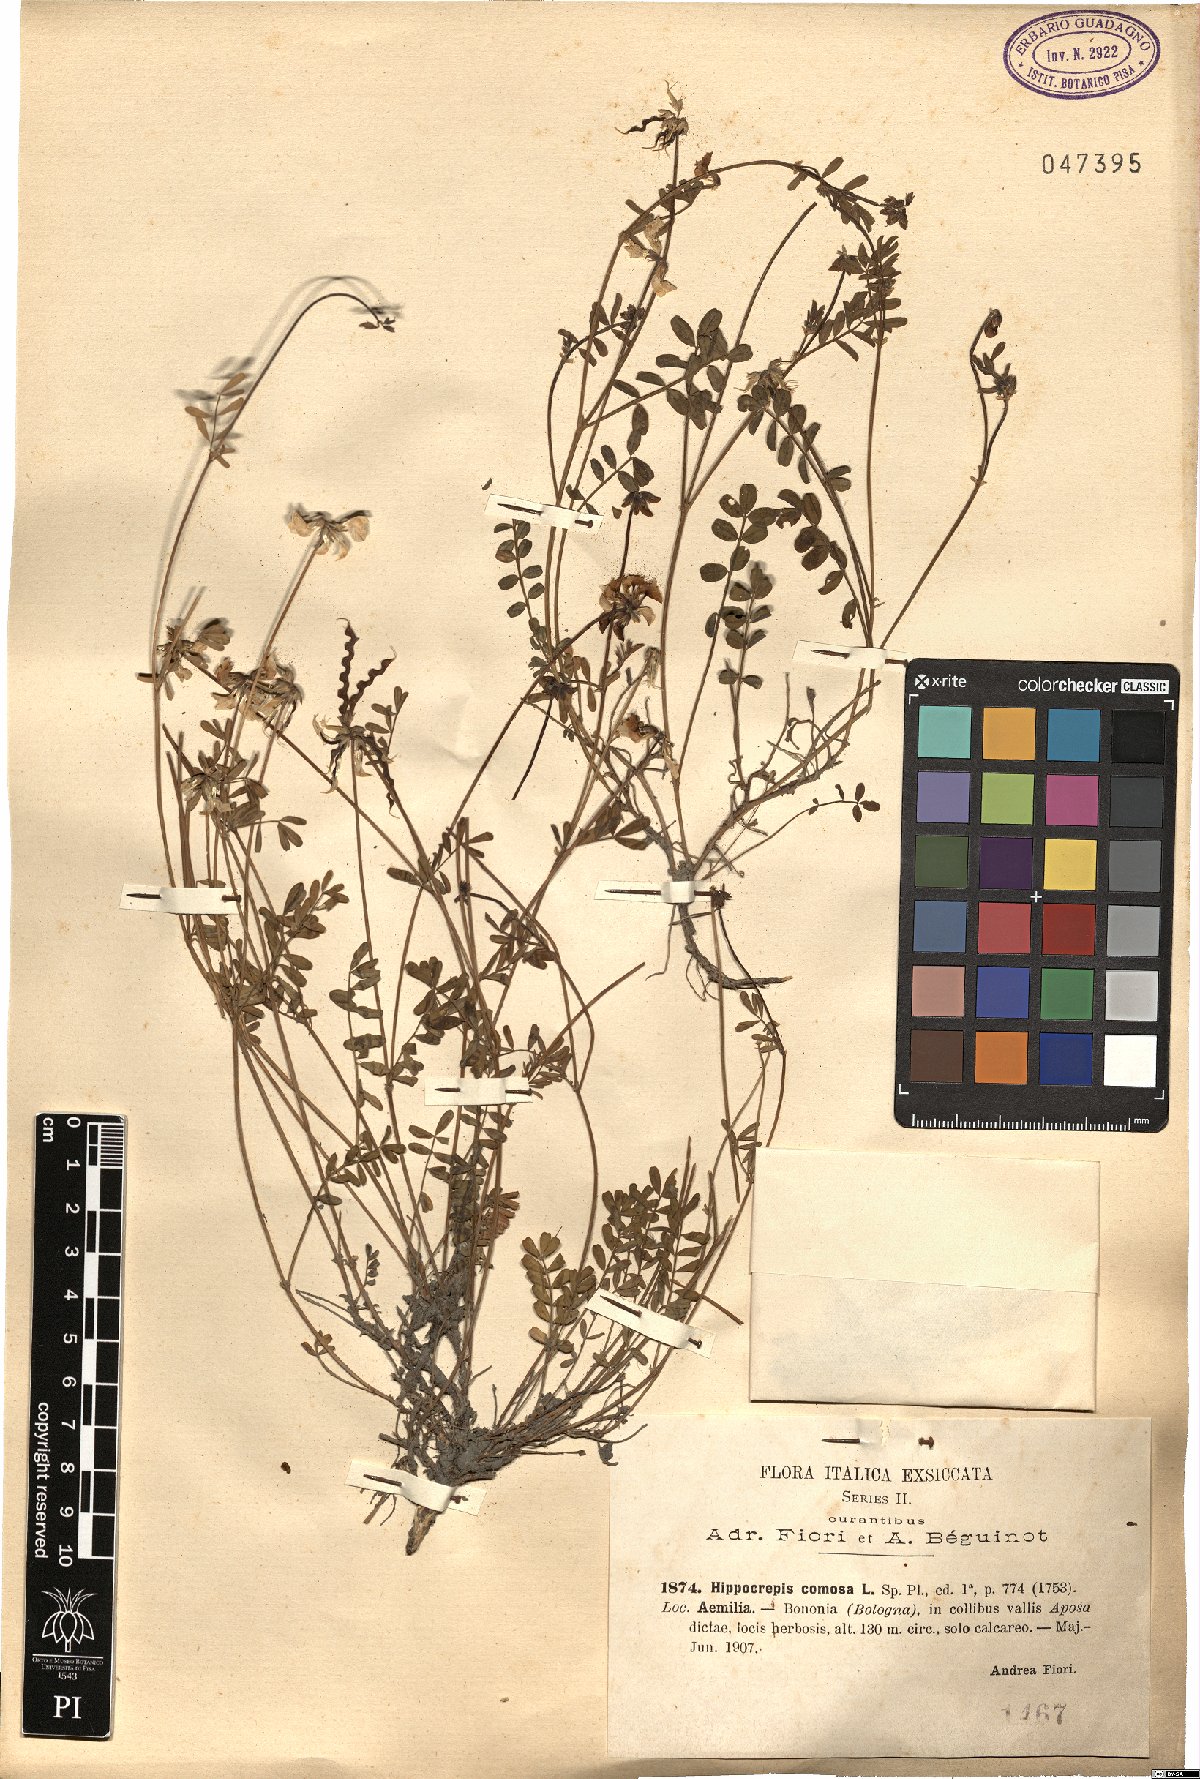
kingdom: Plantae
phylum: Tracheophyta
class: Magnoliopsida
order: Fabales
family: Fabaceae
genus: Hippocrepis
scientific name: Hippocrepis comosa
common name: Horseshoe vetch
